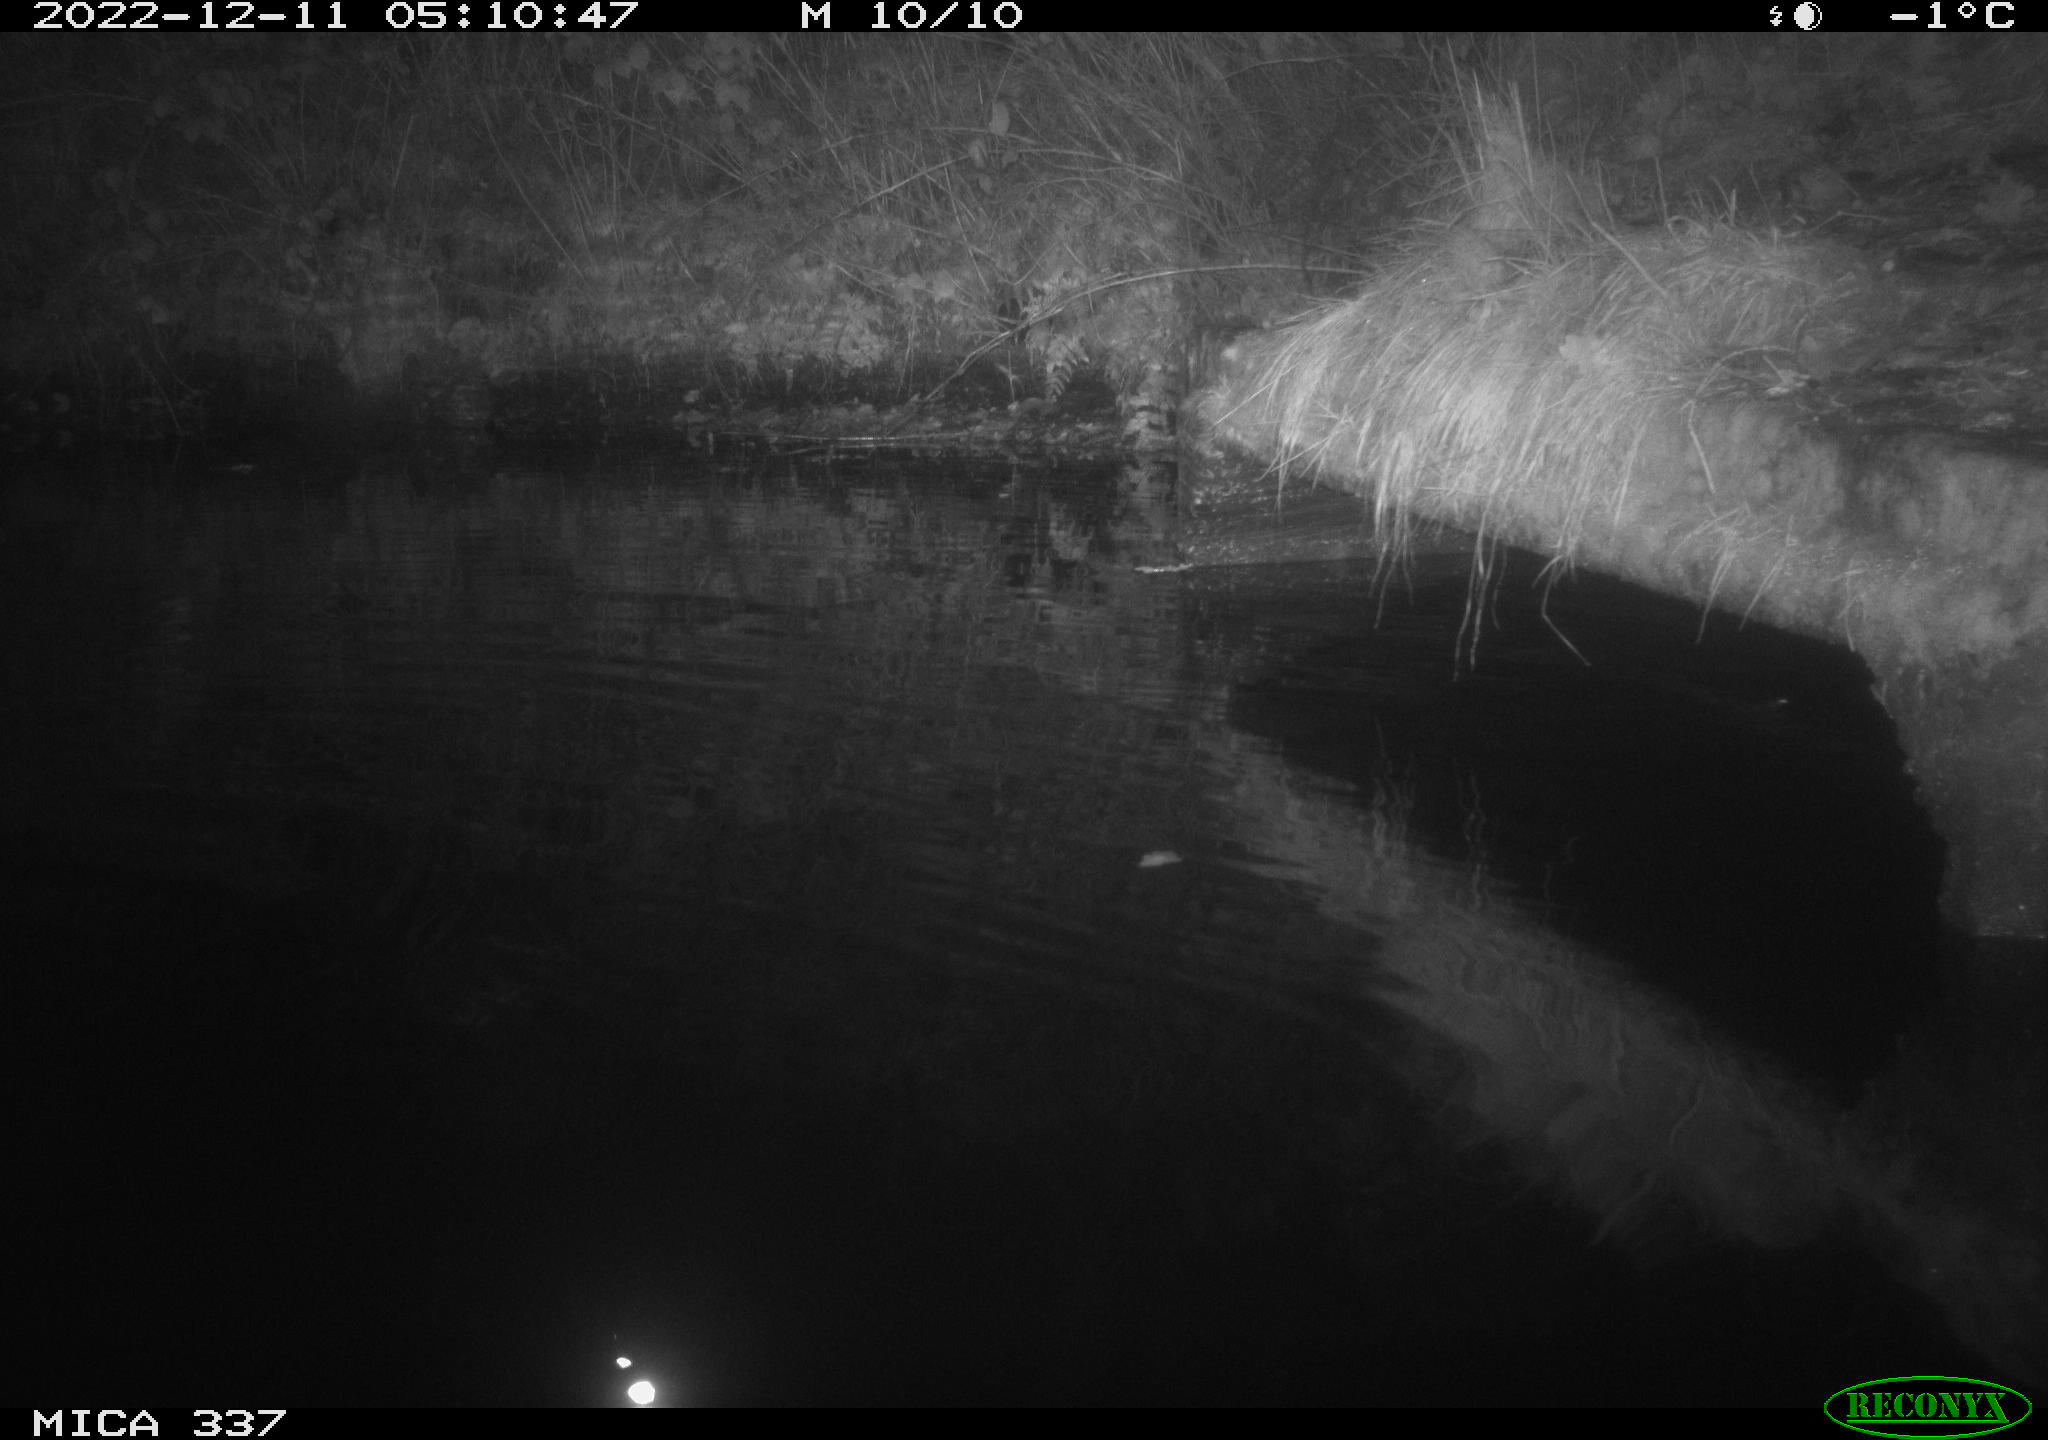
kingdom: Animalia
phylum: Chordata
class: Aves
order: Anseriformes
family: Anatidae
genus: Anas
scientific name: Anas
